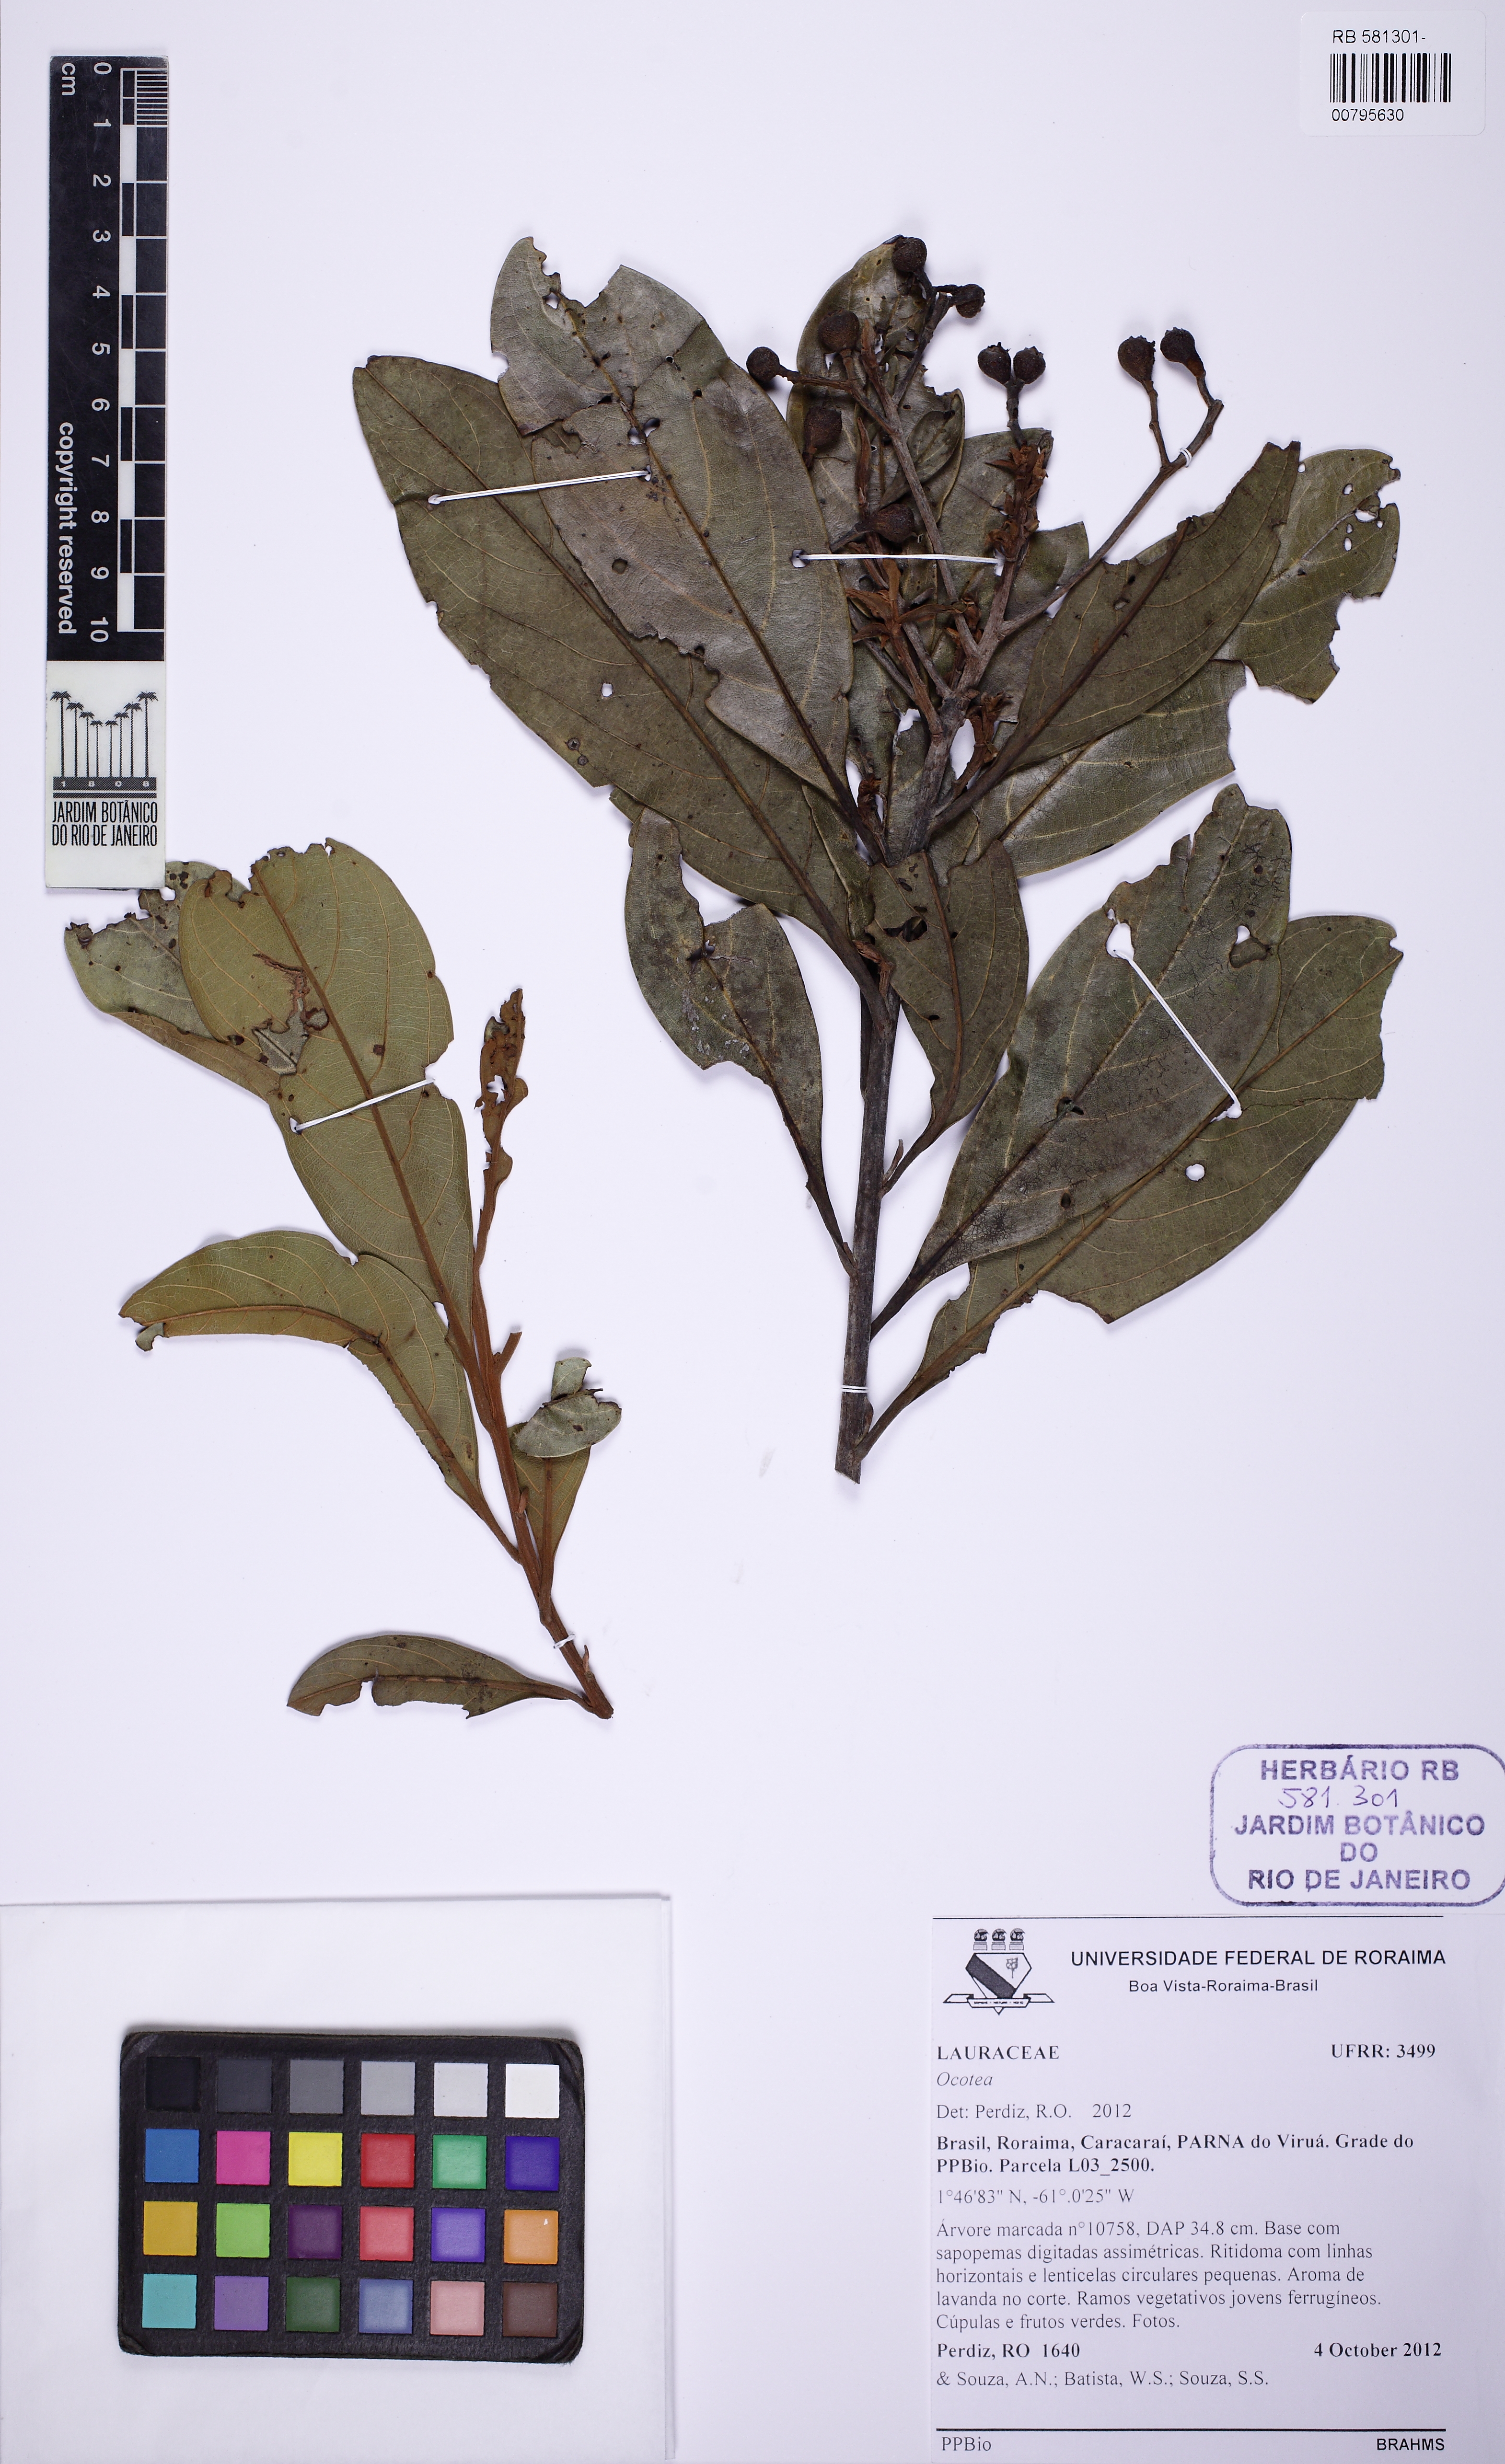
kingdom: Plantae
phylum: Tracheophyta
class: Magnoliopsida
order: Laurales
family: Lauraceae
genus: Ocotea
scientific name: Ocotea
